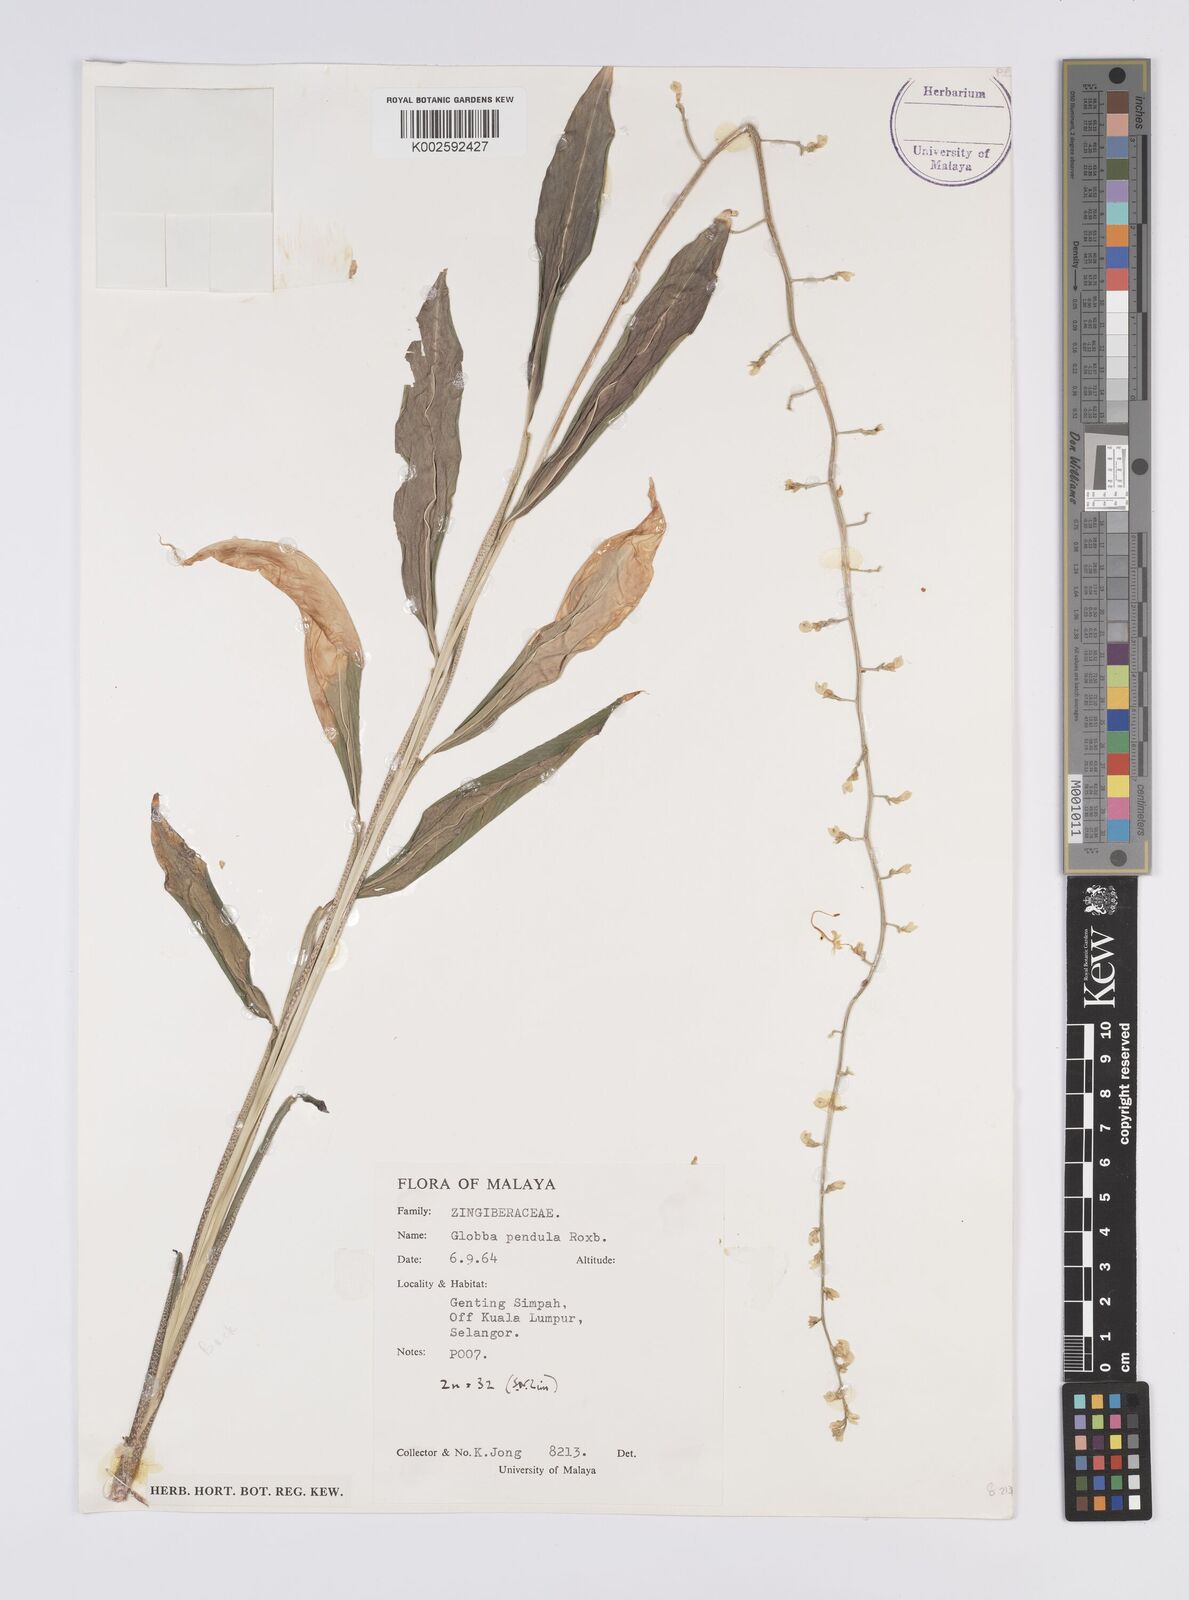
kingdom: Plantae
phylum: Tracheophyta
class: Liliopsida
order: Zingiberales
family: Zingiberaceae
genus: Globba
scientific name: Globba pendula
